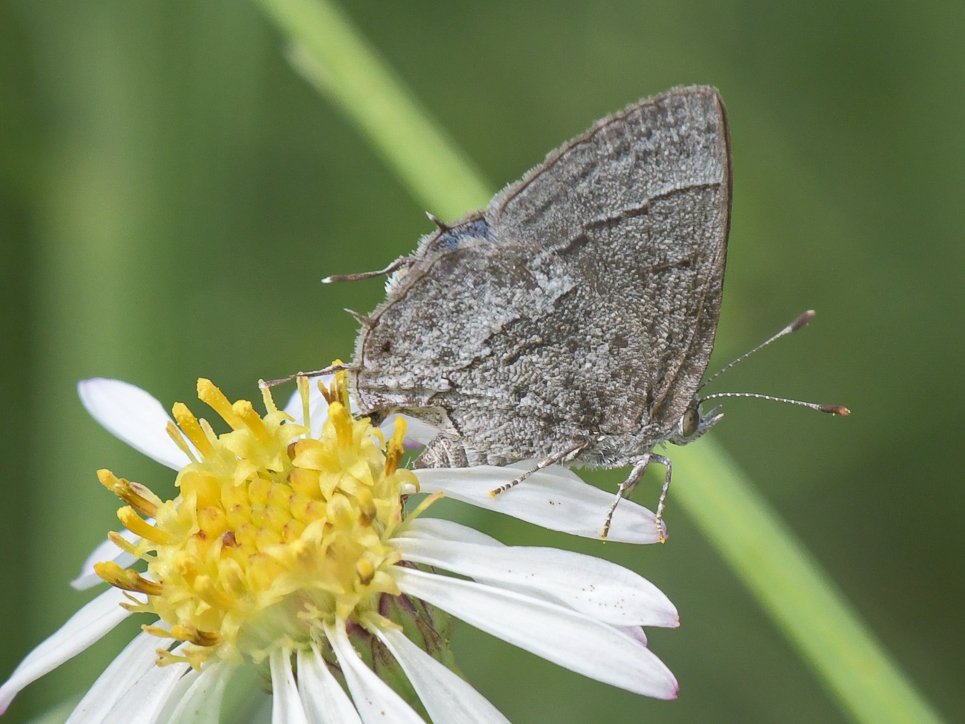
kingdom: Animalia
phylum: Arthropoda
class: Insecta
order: Lepidoptera
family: Lycaenidae
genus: Ministrymon
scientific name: Ministrymon leda
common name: Leda Ministreak
